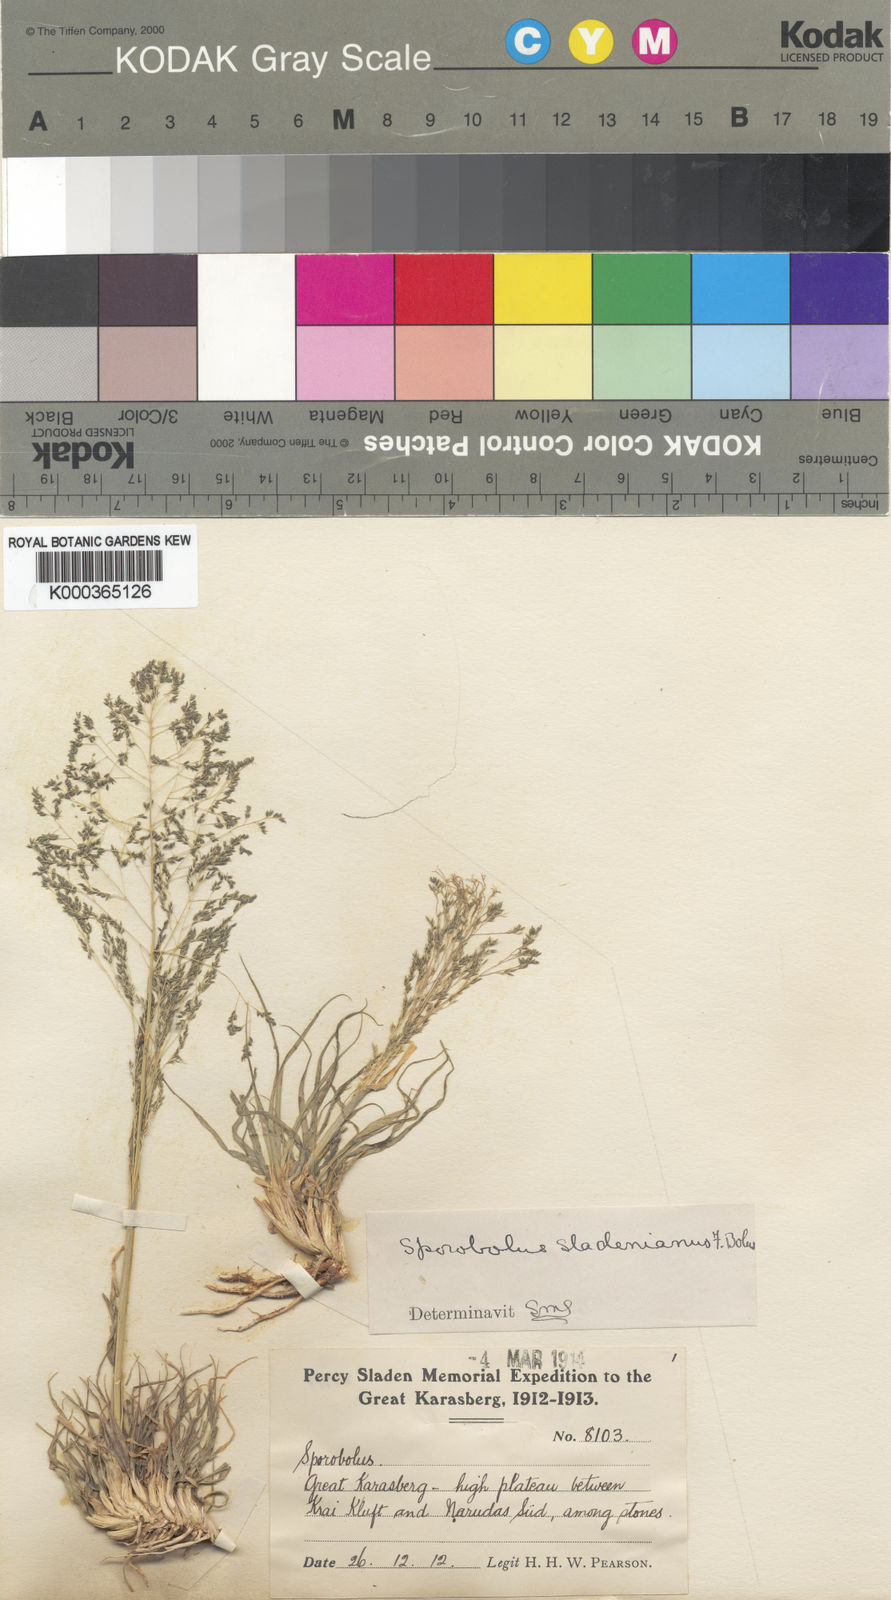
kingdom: Plantae
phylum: Tracheophyta
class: Liliopsida
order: Poales
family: Poaceae
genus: Sporobolus
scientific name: Sporobolus nervosus
